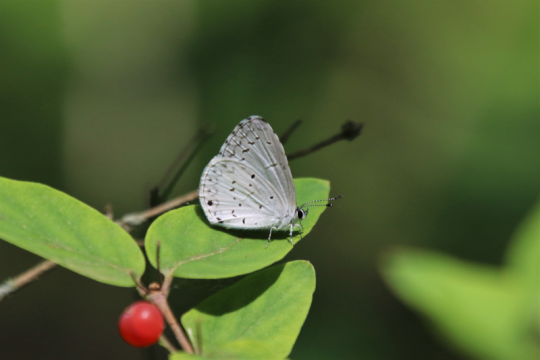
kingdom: Animalia
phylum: Arthropoda
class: Insecta
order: Lepidoptera
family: Lycaenidae
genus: Cyaniris
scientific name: Cyaniris neglecta
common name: Summer Azure
